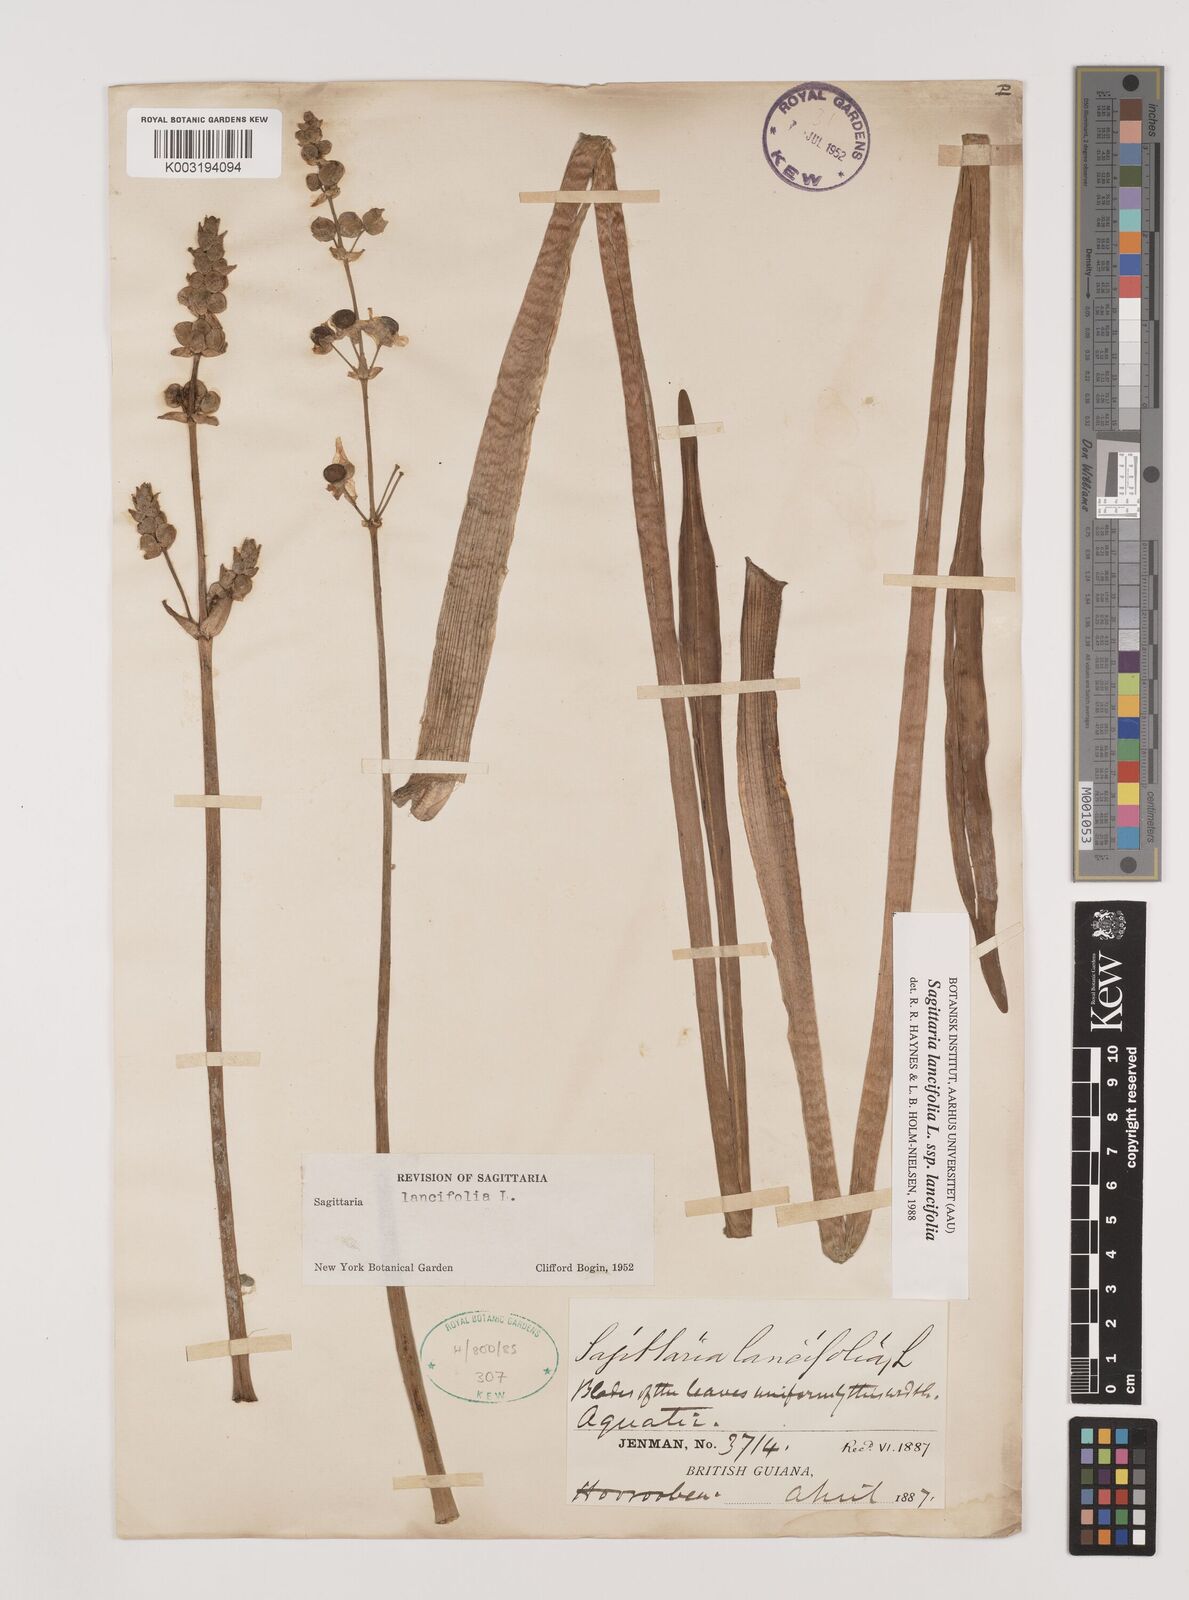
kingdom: Plantae
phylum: Tracheophyta
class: Liliopsida
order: Alismatales
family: Alismataceae
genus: Sagittaria
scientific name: Sagittaria lancifolia
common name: Lance-leaf arrowhead
